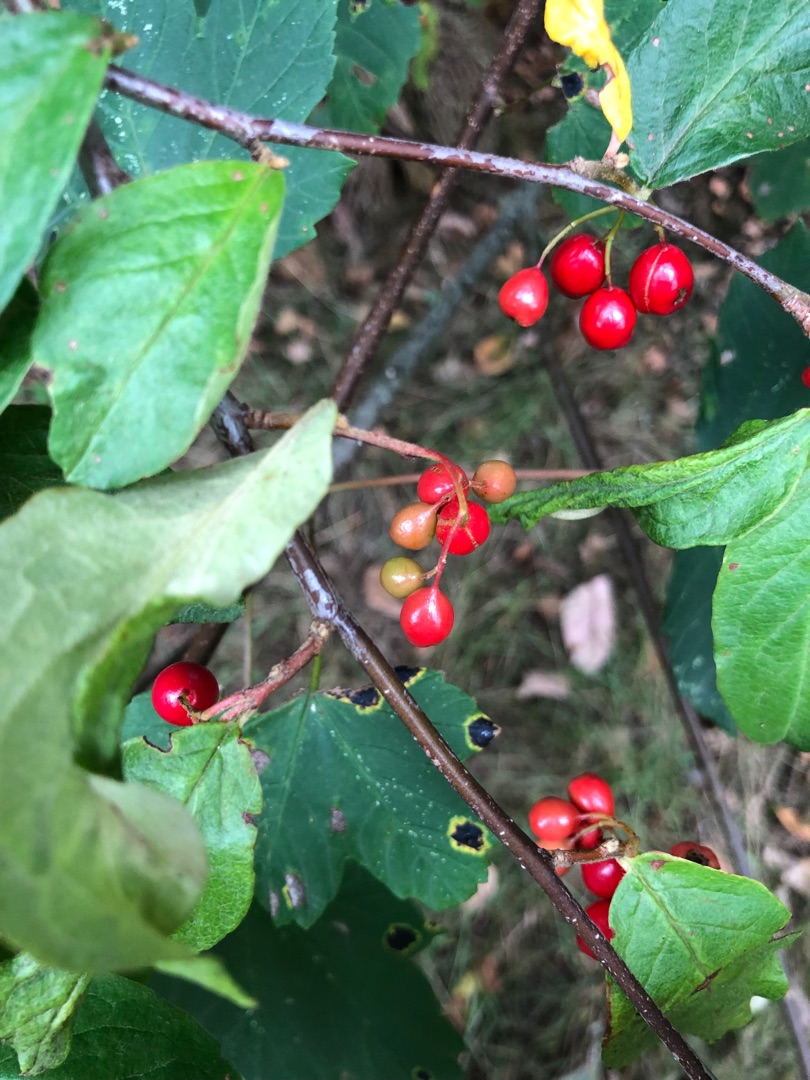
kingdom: Plantae
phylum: Tracheophyta
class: Magnoliopsida
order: Rosales
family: Rosaceae
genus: Cotoneaster
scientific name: Cotoneaster
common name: Dværgmispelslægten
